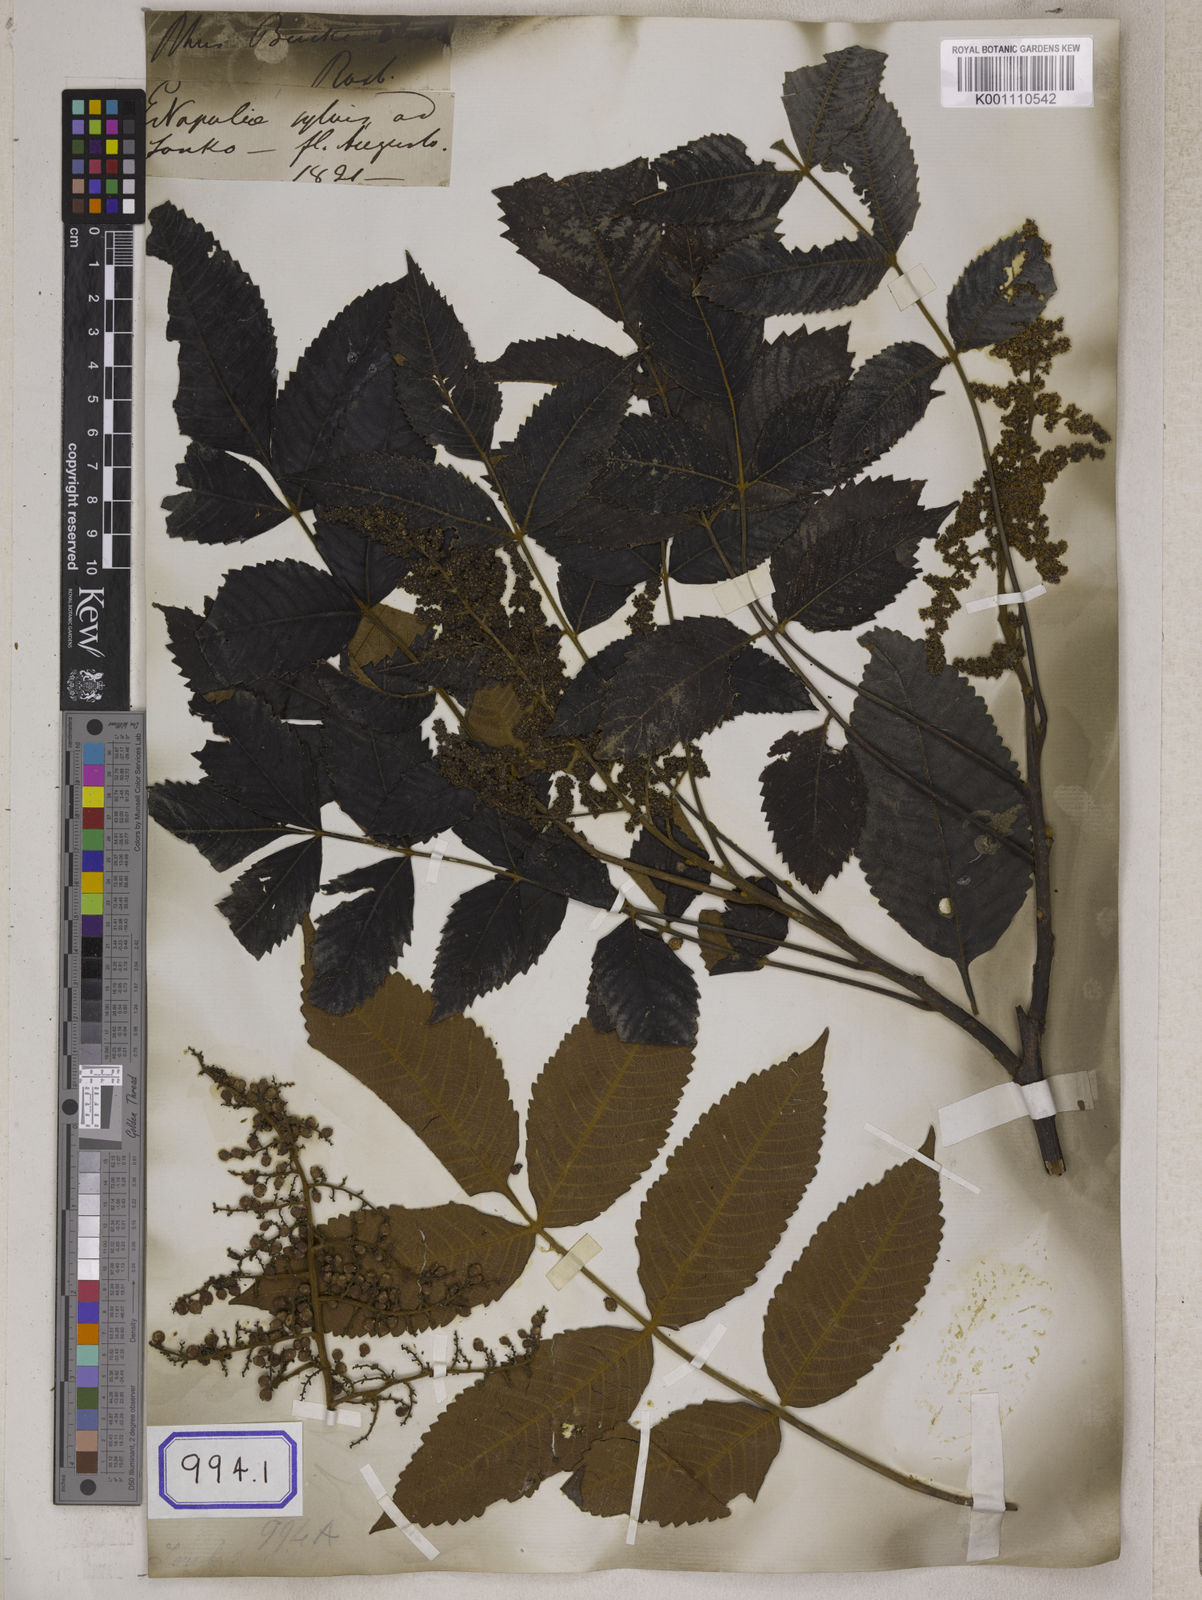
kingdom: Plantae
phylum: Tracheophyta
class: Magnoliopsida
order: Sapindales
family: Simaroubaceae
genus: Brucea
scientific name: Brucea javanica
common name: Macassar kernels
